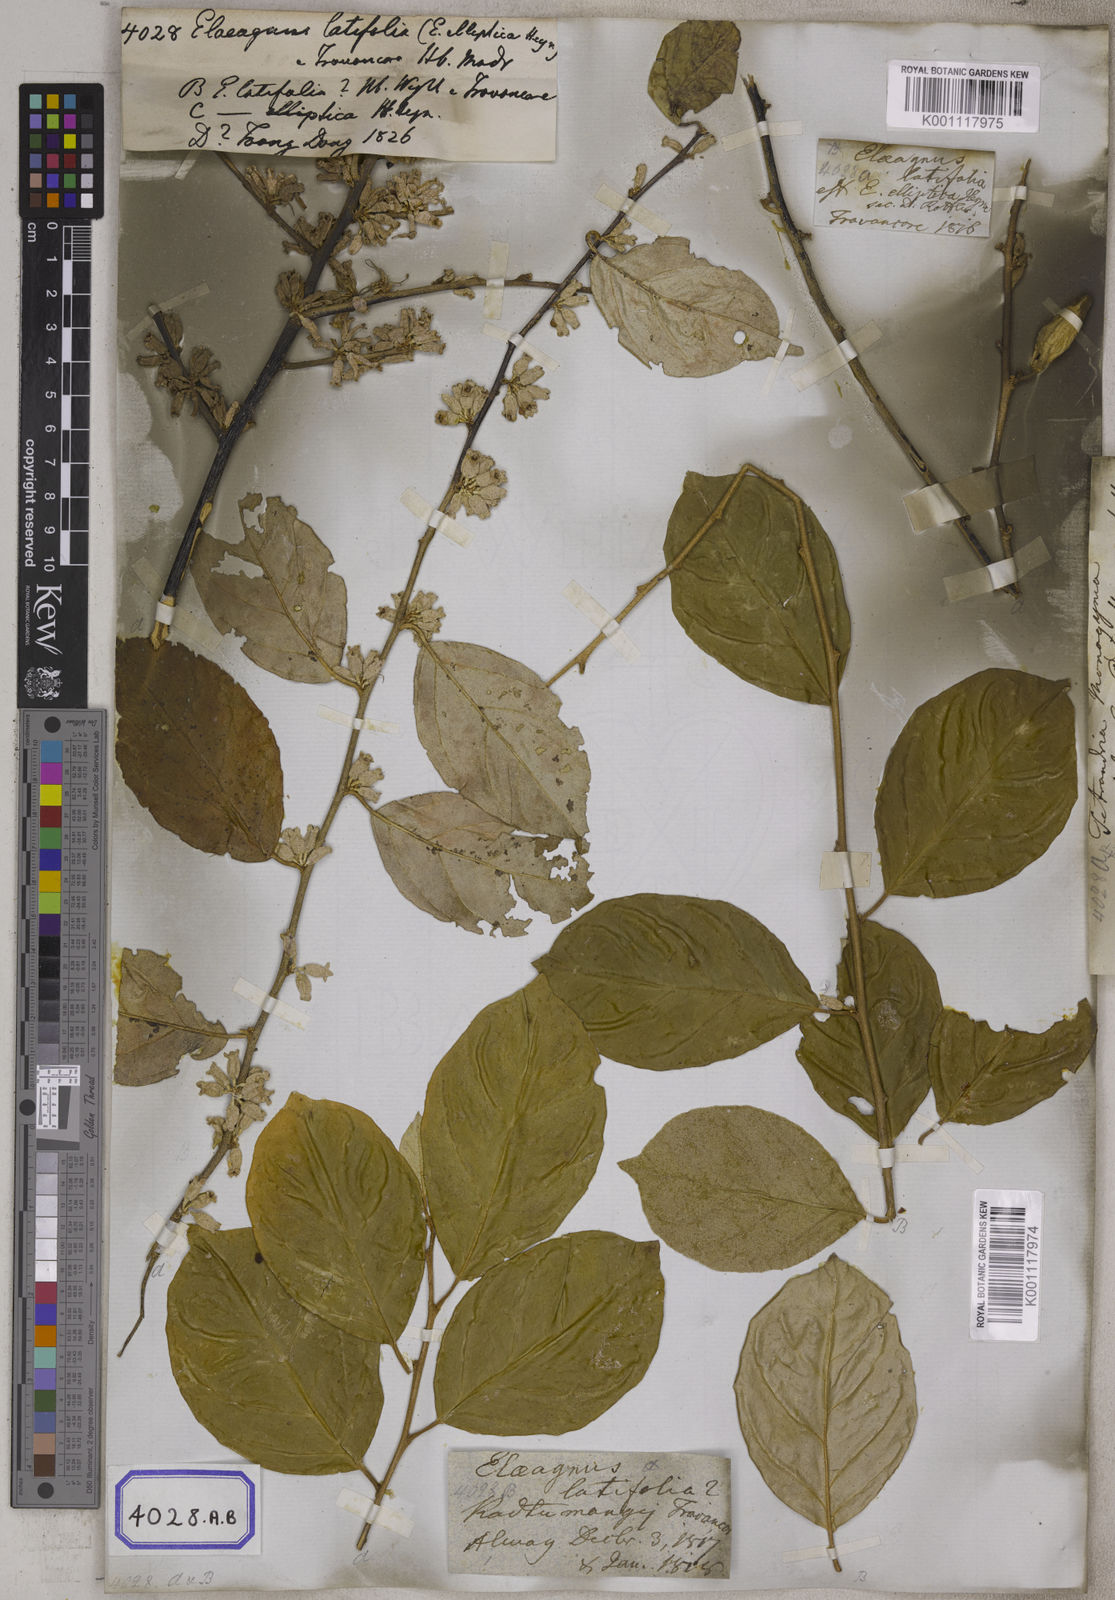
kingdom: Plantae
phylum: Tracheophyta
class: Magnoliopsida
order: Rosales
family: Elaeagnaceae
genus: Elaeagnus
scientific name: Elaeagnus latifolia
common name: Oleaster
